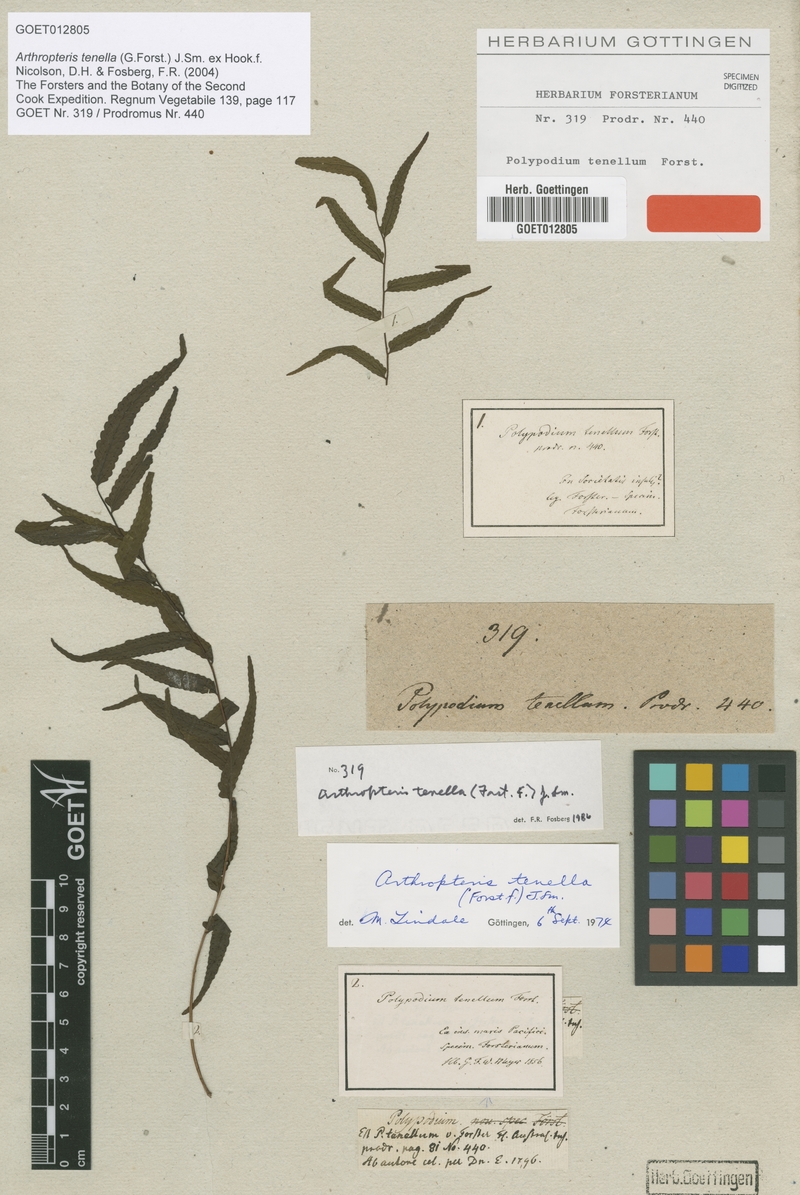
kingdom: Plantae
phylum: Tracheophyta
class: Polypodiopsida
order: Polypodiales
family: Tectariaceae
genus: Arthropteris
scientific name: Arthropteris tenella
